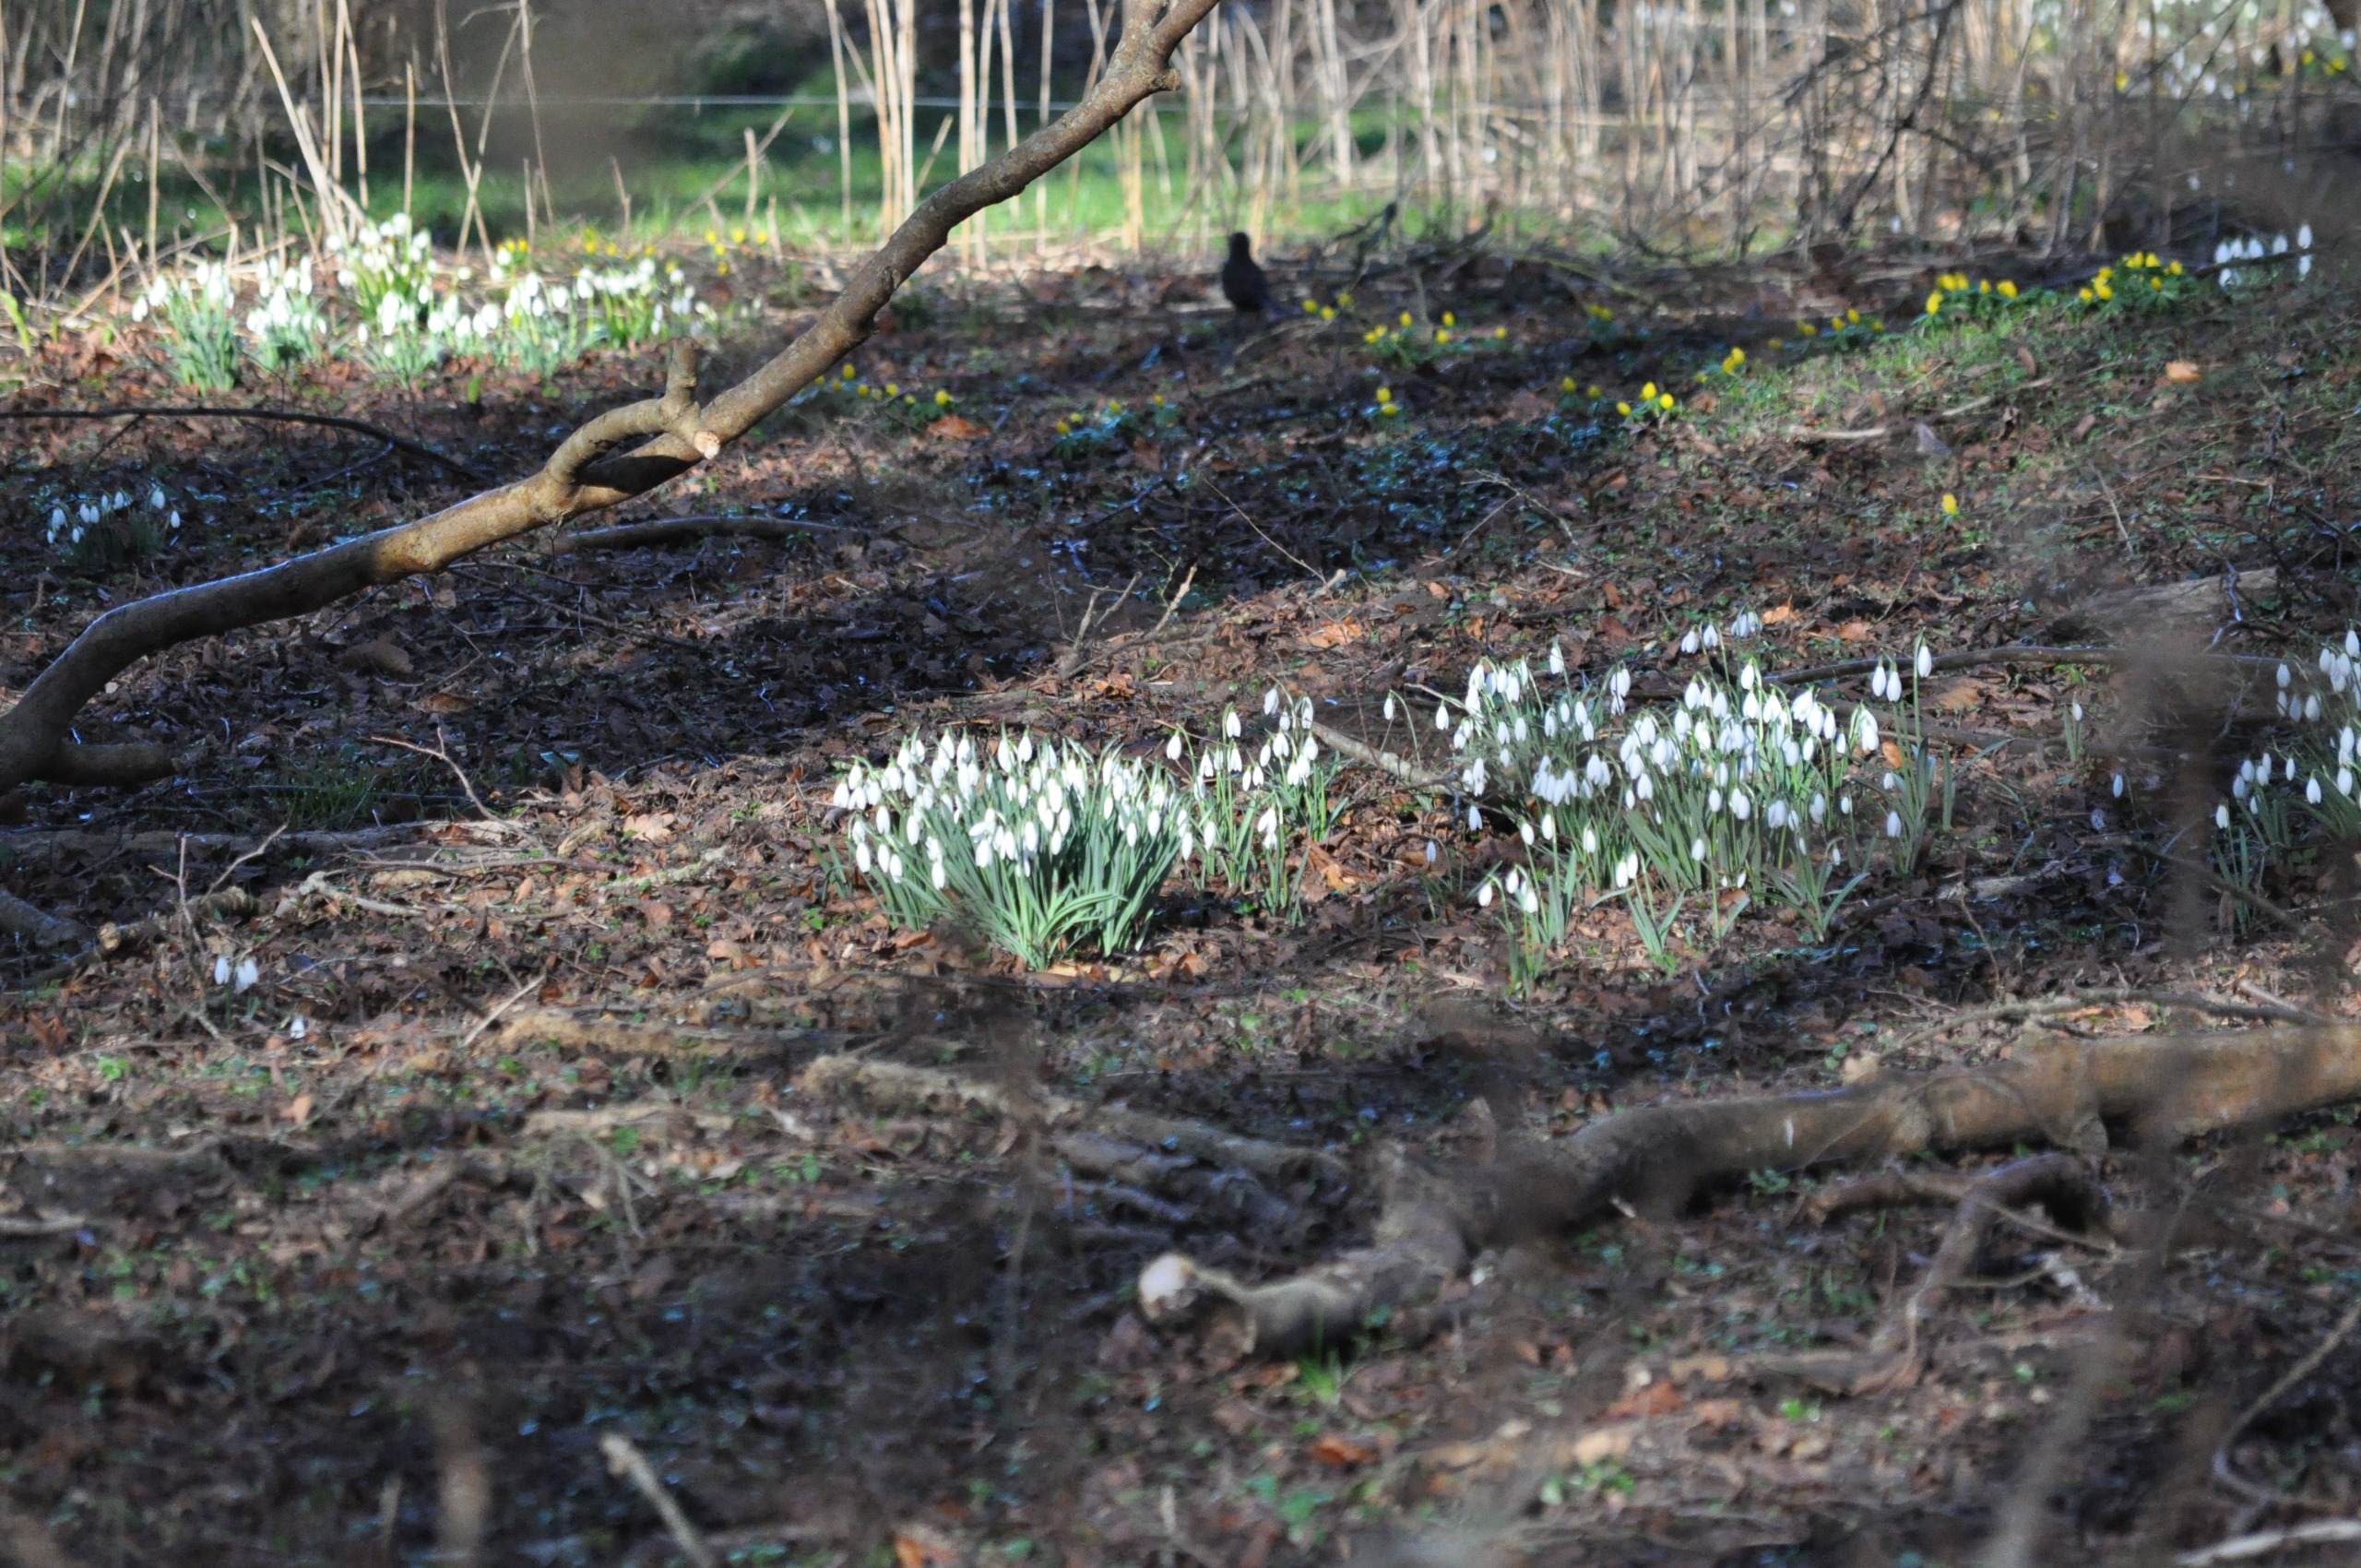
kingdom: Plantae
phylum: Tracheophyta
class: Liliopsida
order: Asparagales
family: Amaryllidaceae
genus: Galanthus
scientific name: Galanthus nivalis
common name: Vintergæk
